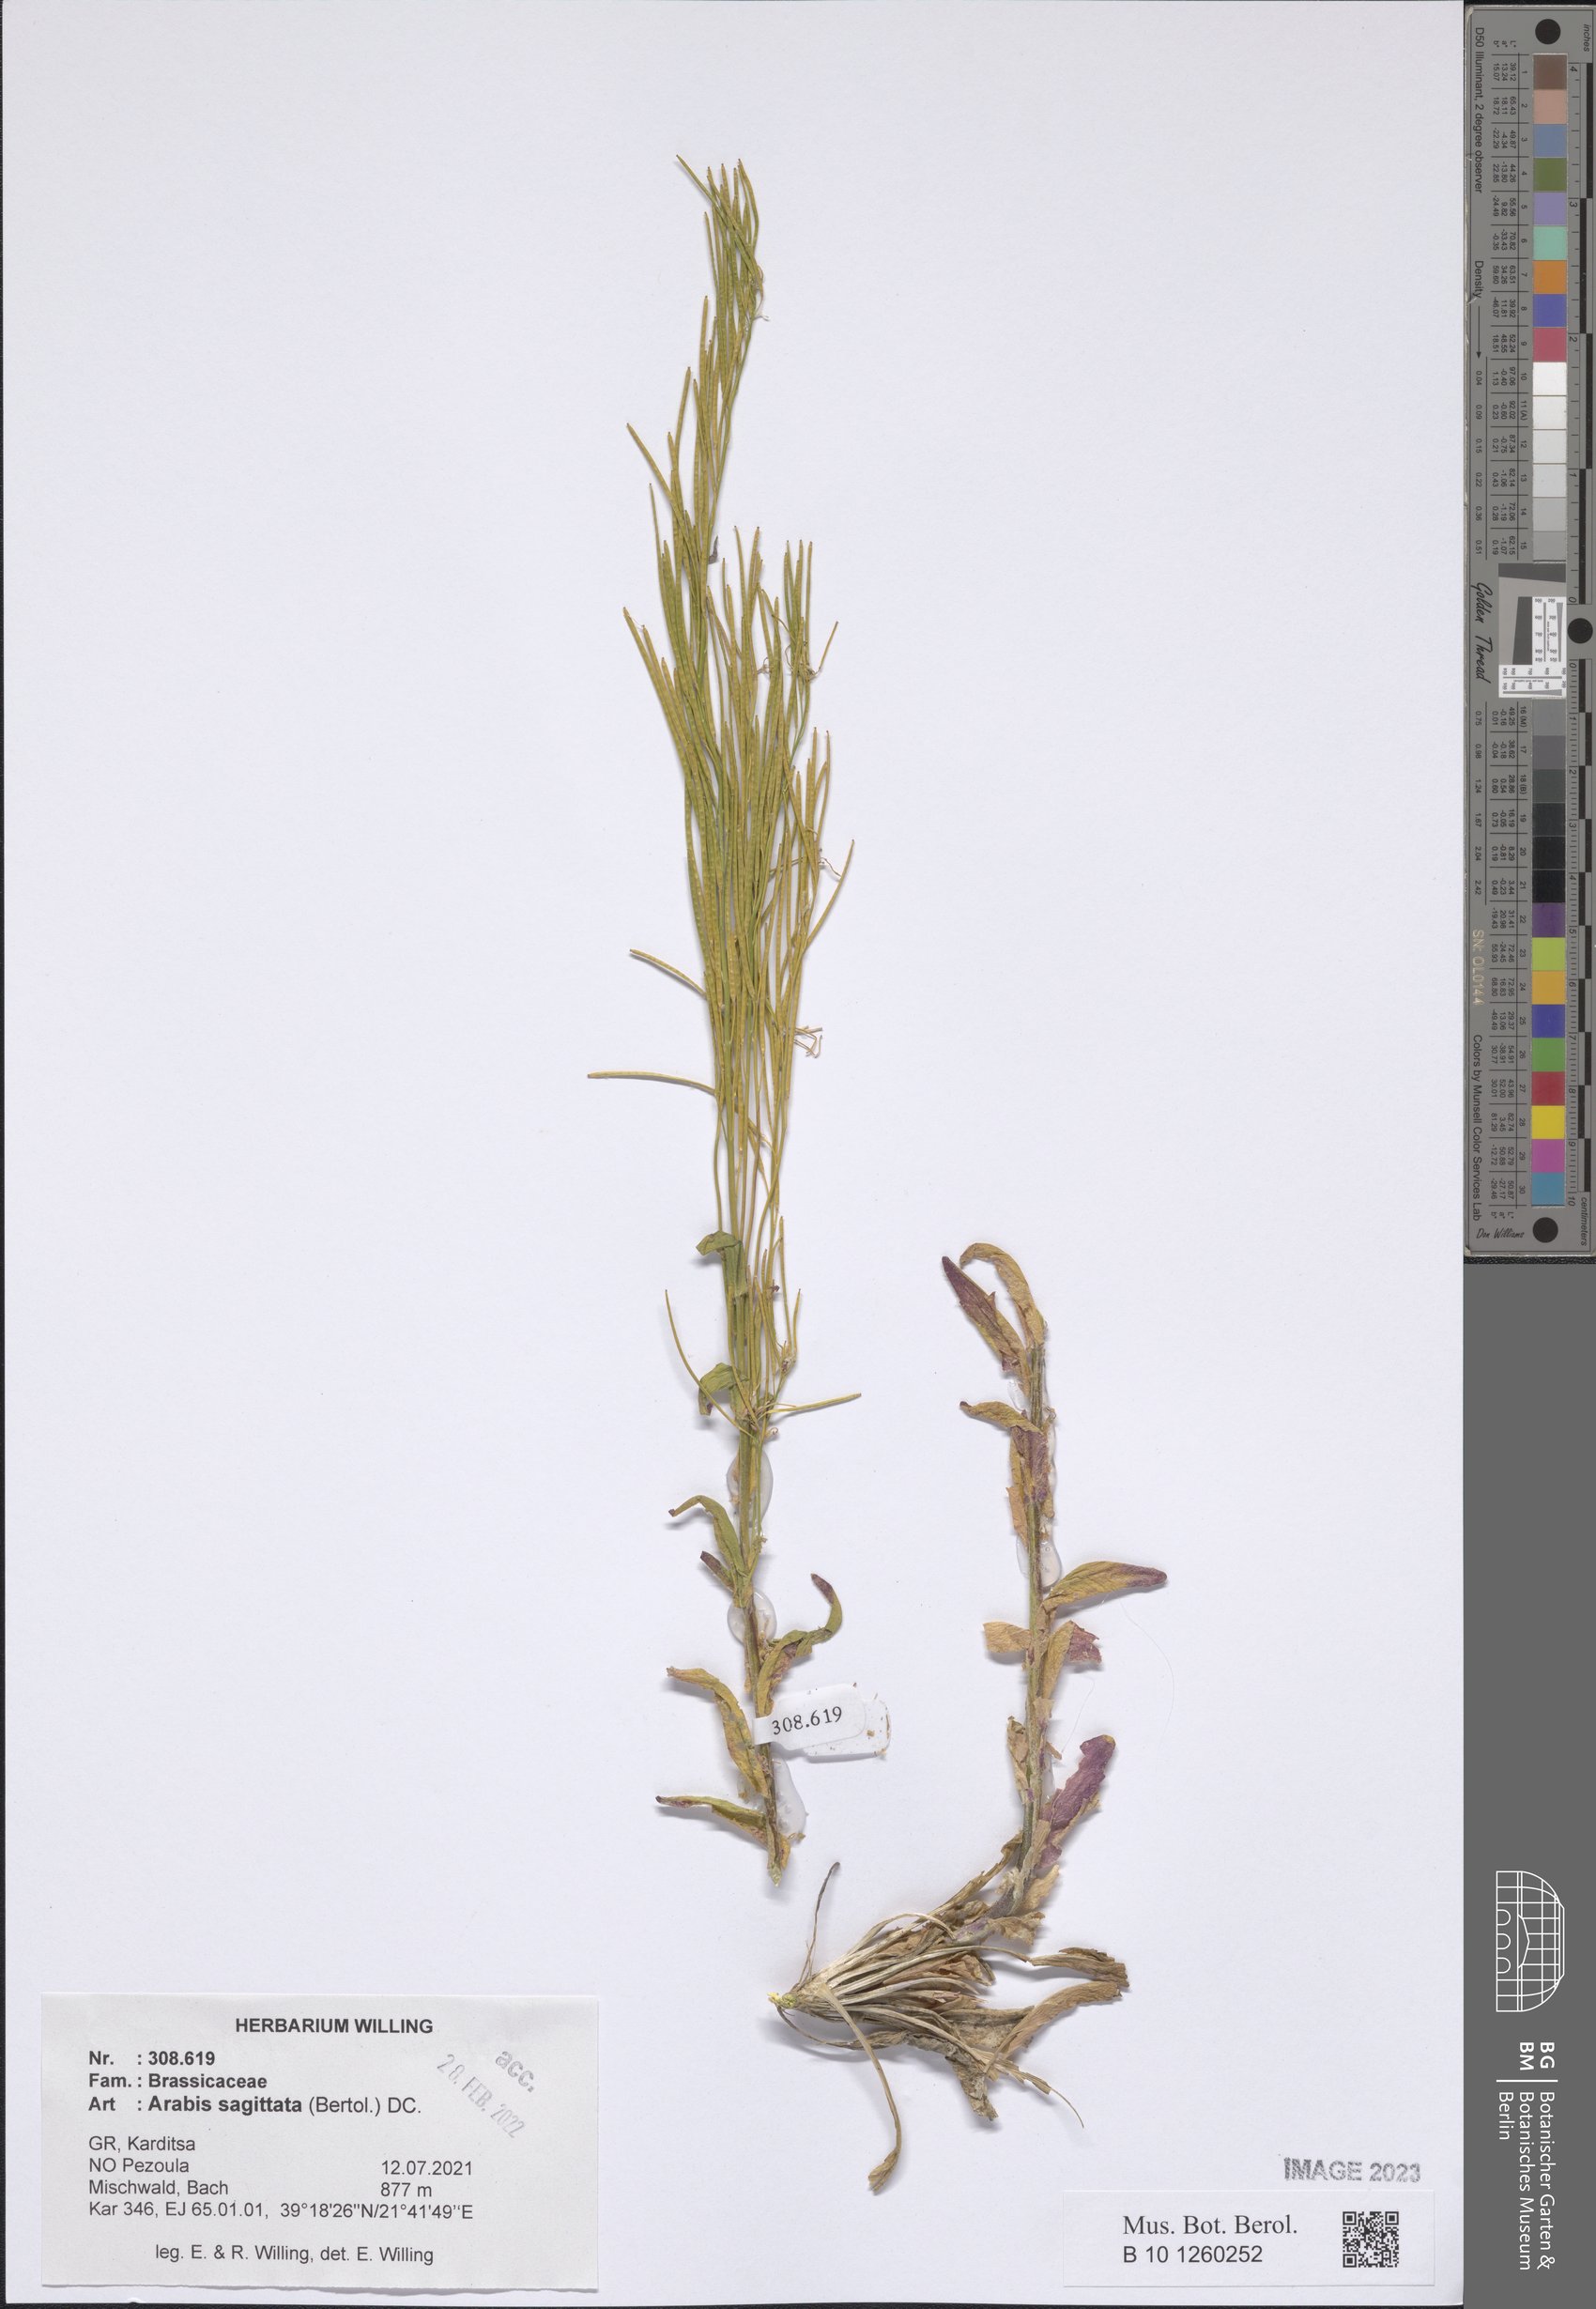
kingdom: Plantae
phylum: Tracheophyta
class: Magnoliopsida
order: Brassicales
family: Brassicaceae
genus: Arabis
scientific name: Arabis sagittata
